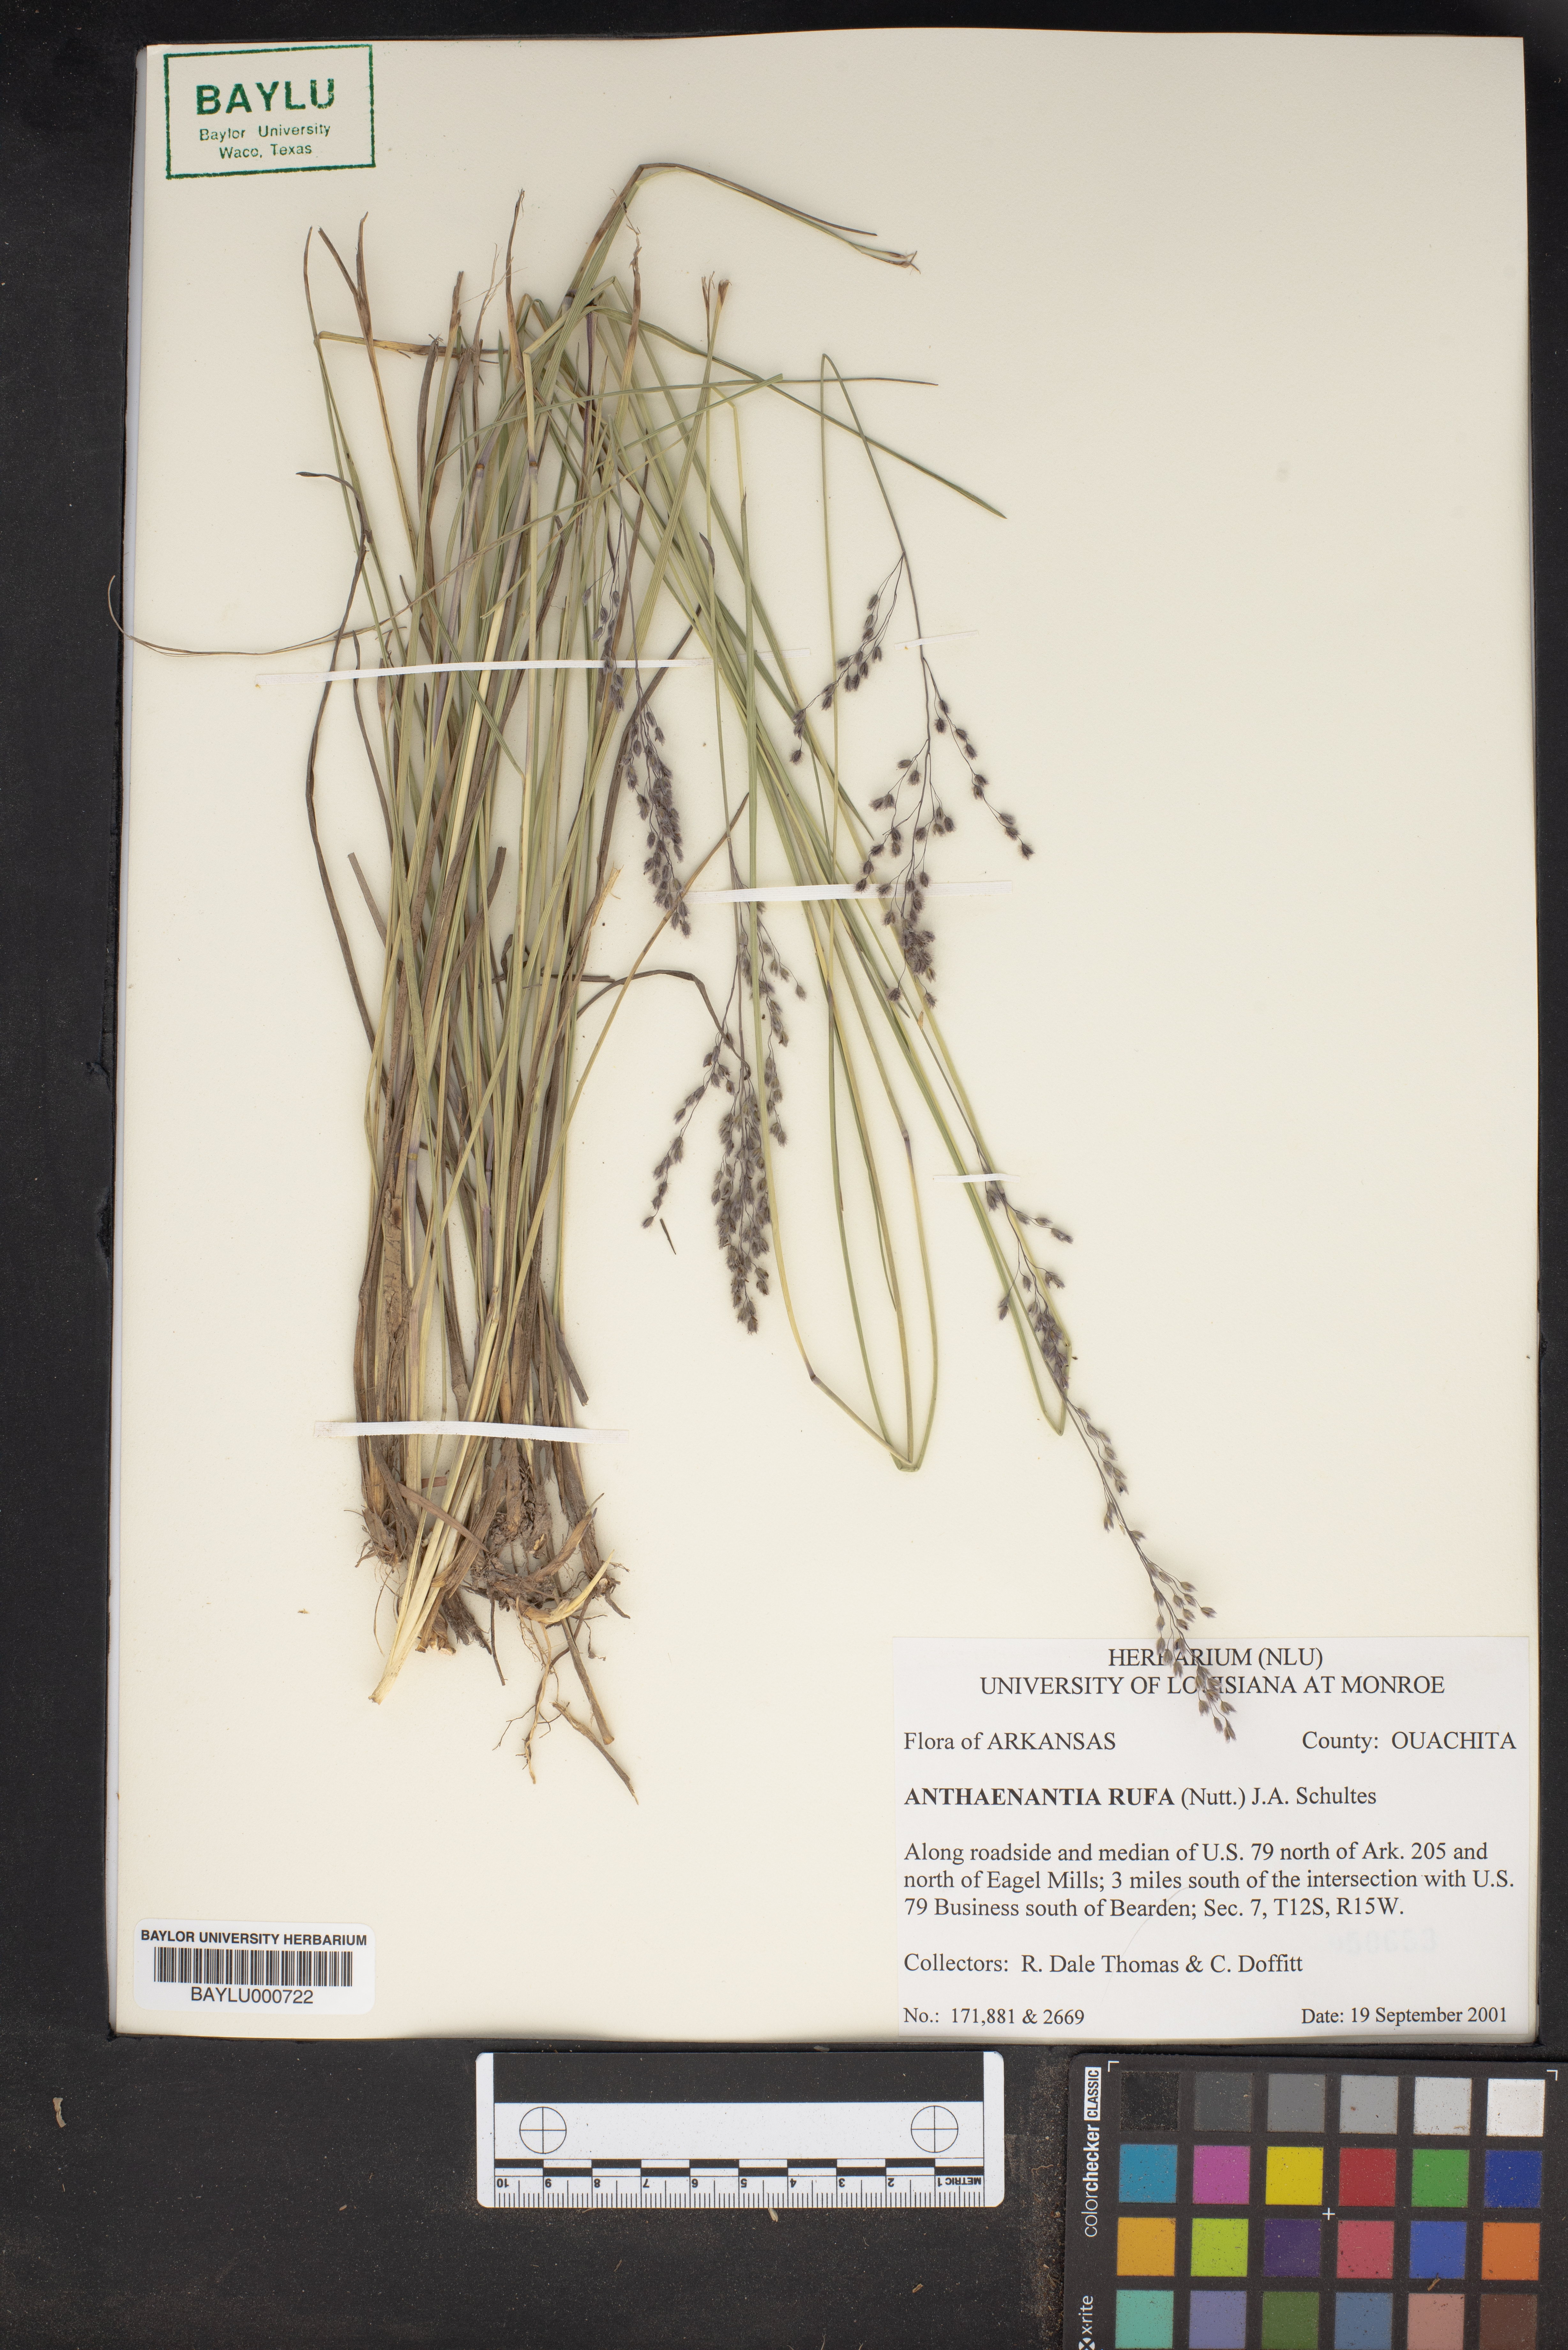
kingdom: Plantae
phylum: Tracheophyta
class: Liliopsida
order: Poales
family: Poaceae
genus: Anthenantia
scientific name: Anthenantia rufa
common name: Purple silkyscale
